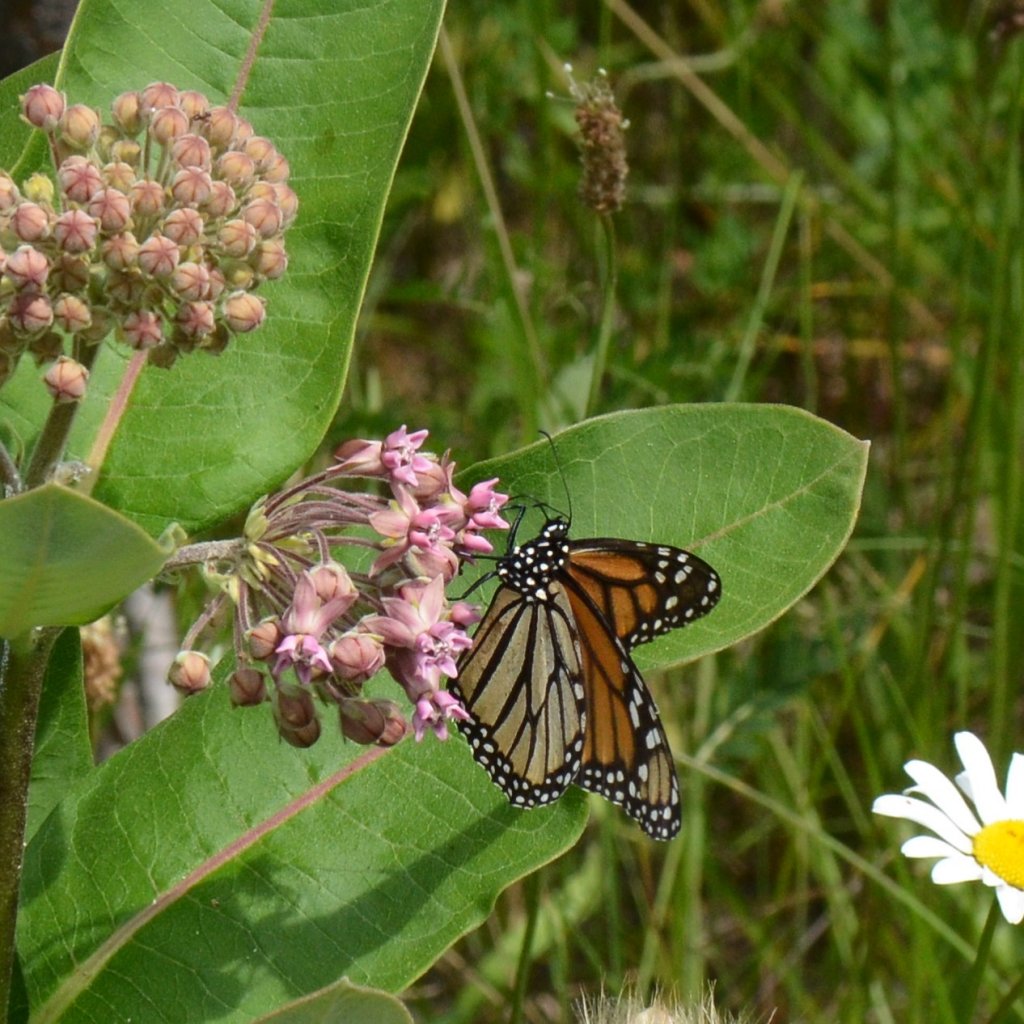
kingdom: Animalia
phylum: Arthropoda
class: Insecta
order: Lepidoptera
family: Nymphalidae
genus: Danaus
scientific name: Danaus plexippus
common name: Monarch
